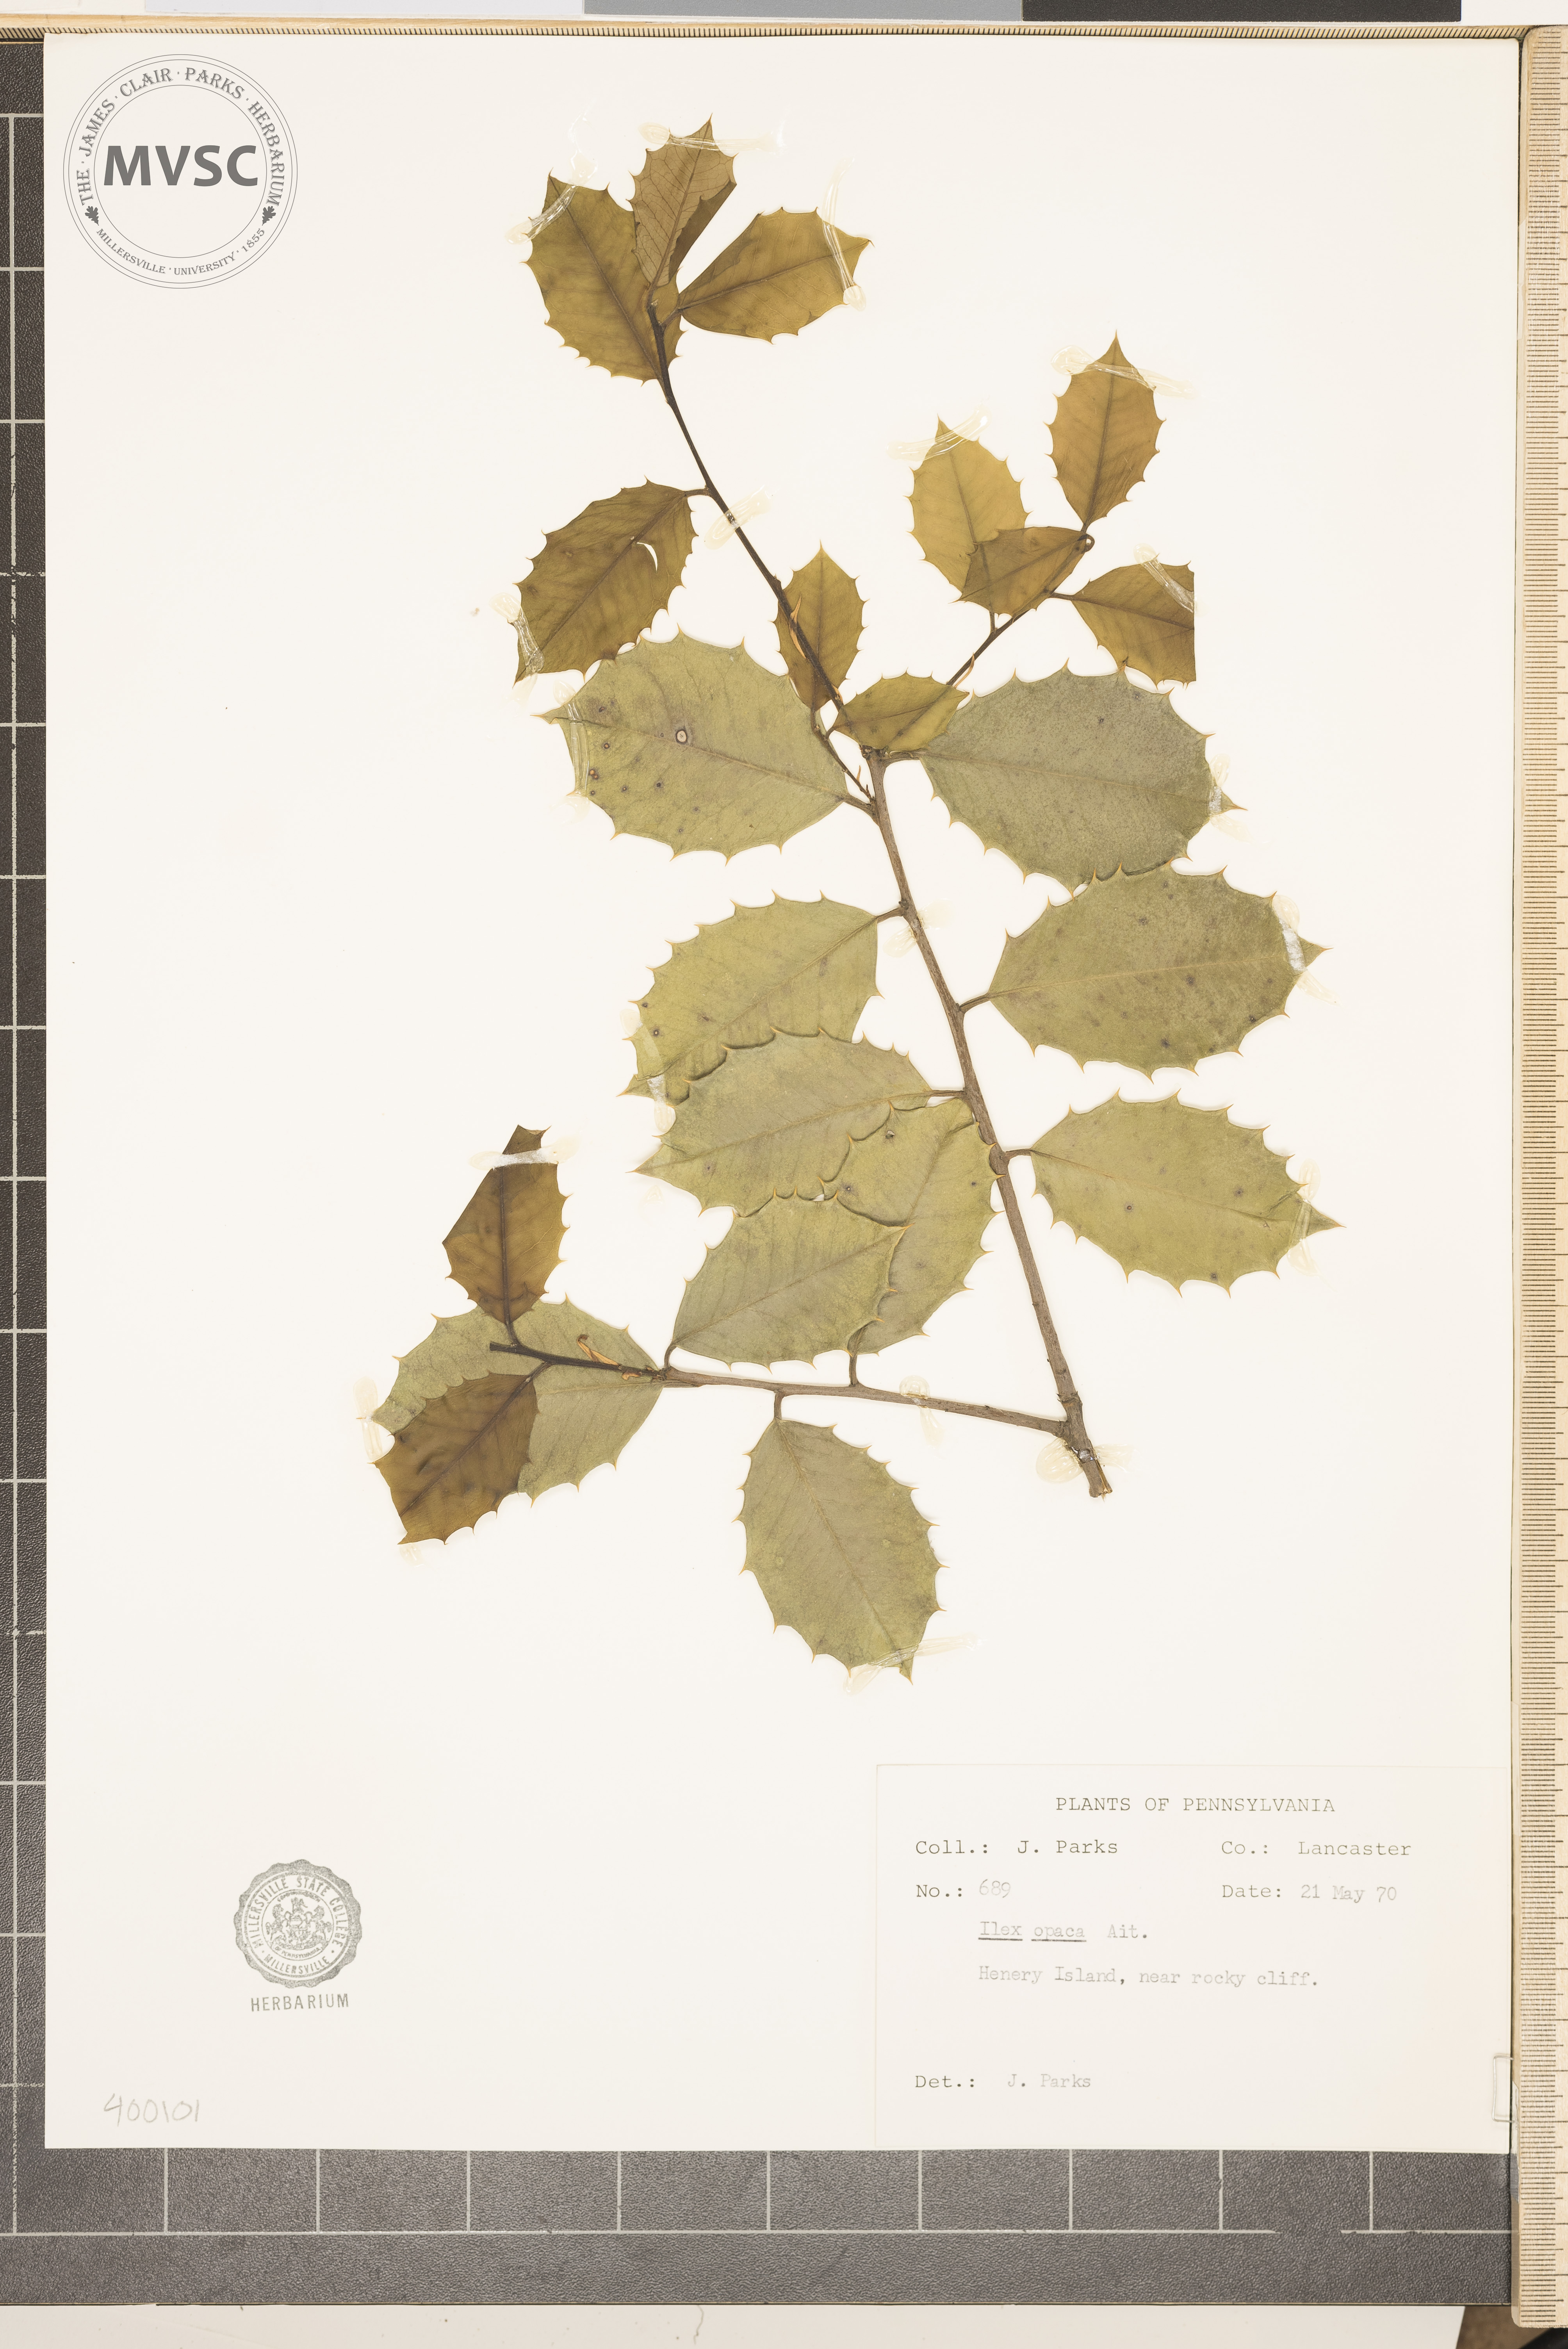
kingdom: Plantae
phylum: Tracheophyta
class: Magnoliopsida
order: Aquifoliales
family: Aquifoliaceae
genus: Ilex
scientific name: Ilex opaca
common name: American holly
